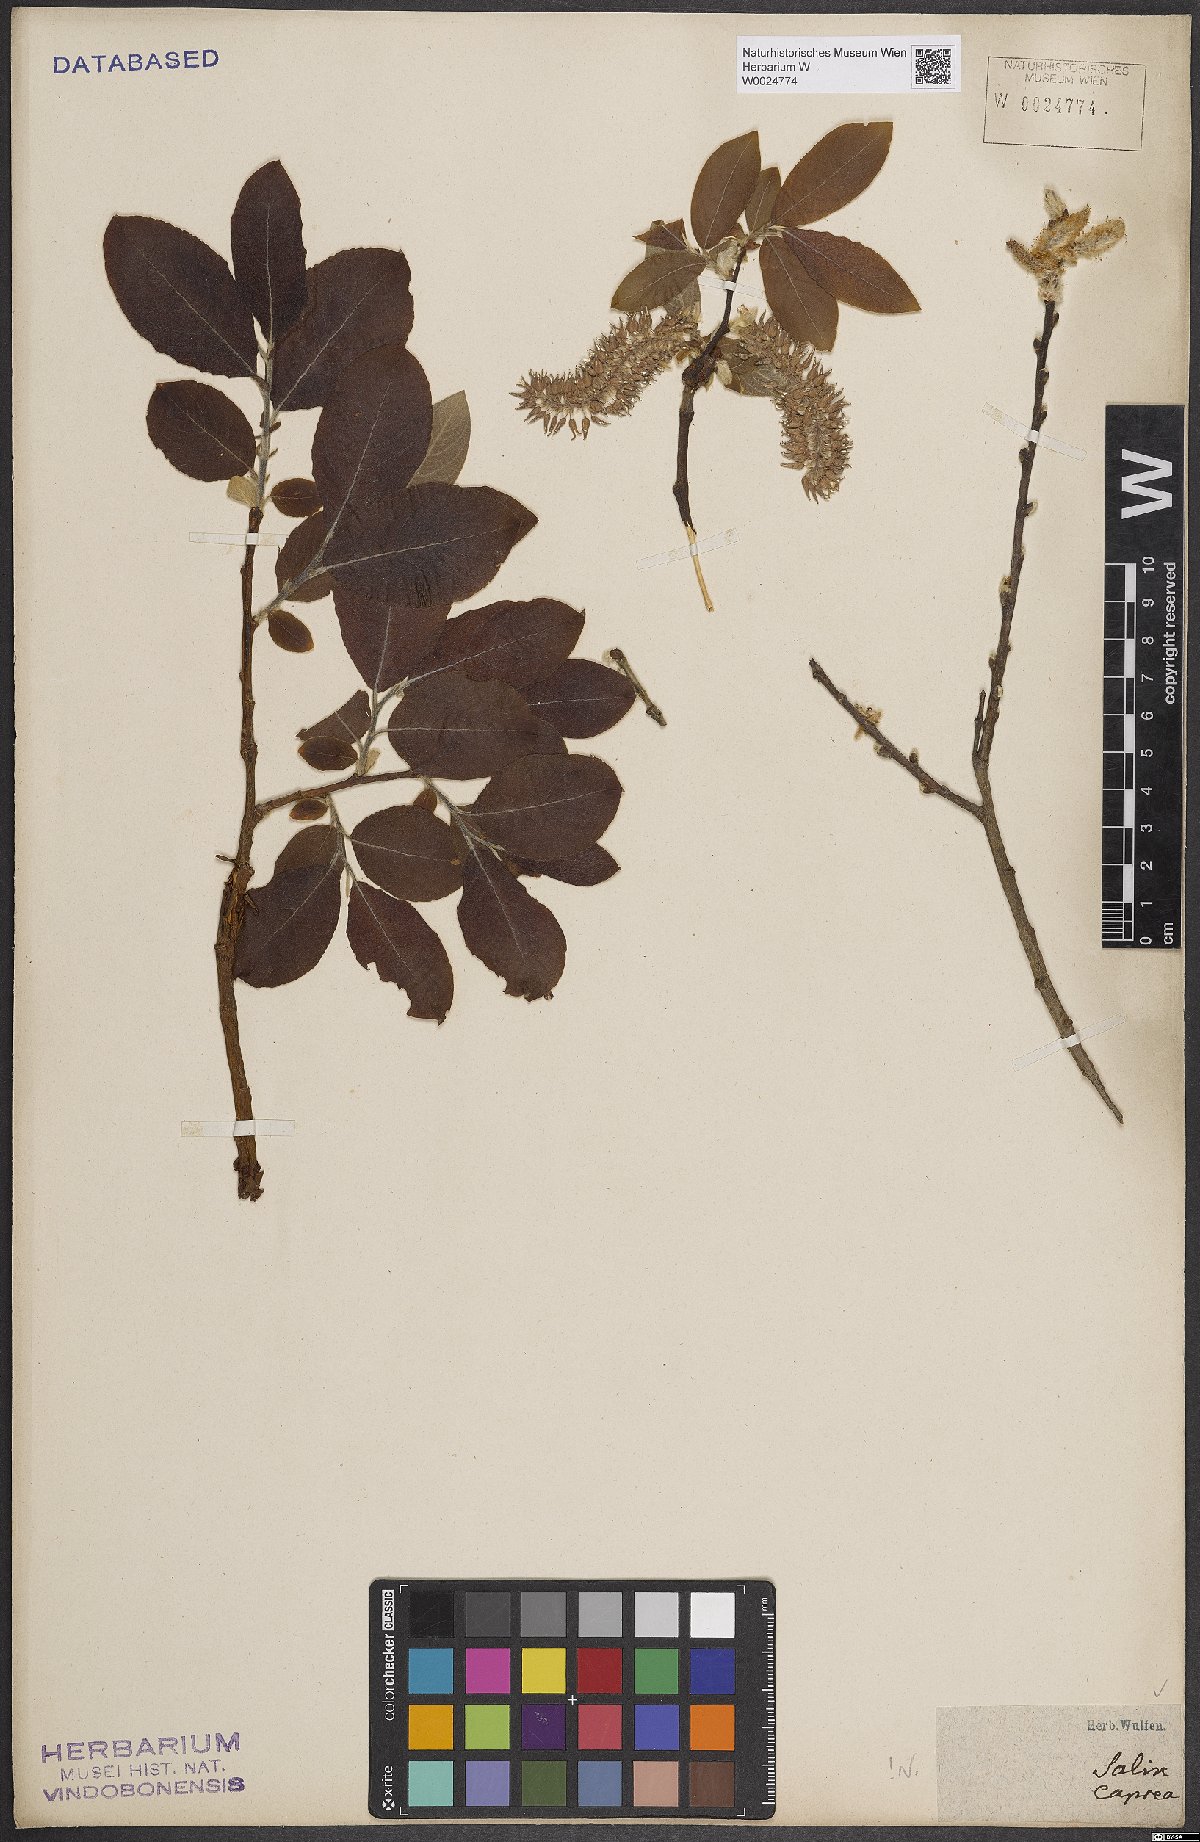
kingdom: Plantae
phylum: Tracheophyta
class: Magnoliopsida
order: Malpighiales
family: Salicaceae
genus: Salix
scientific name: Salix caprea
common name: Goat willow
